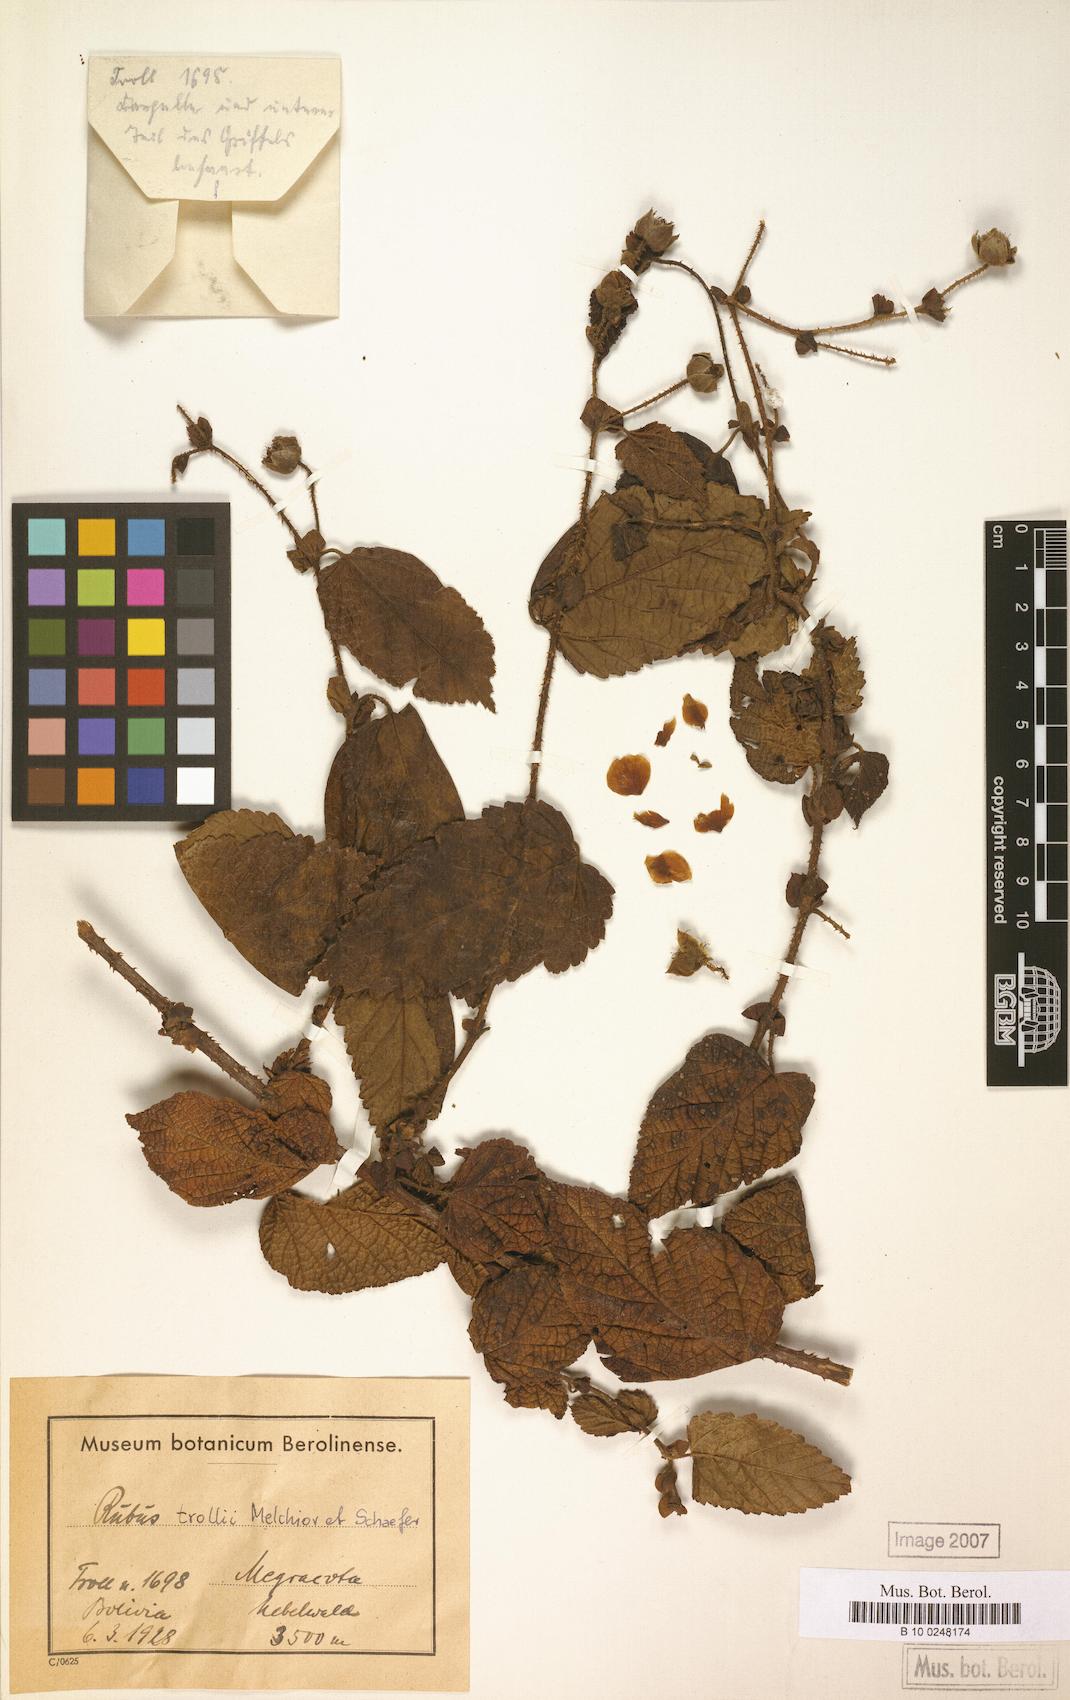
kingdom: Plantae
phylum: Tracheophyta
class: Magnoliopsida
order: Rosales
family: Rosaceae
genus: Rubus
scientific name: Rubus
